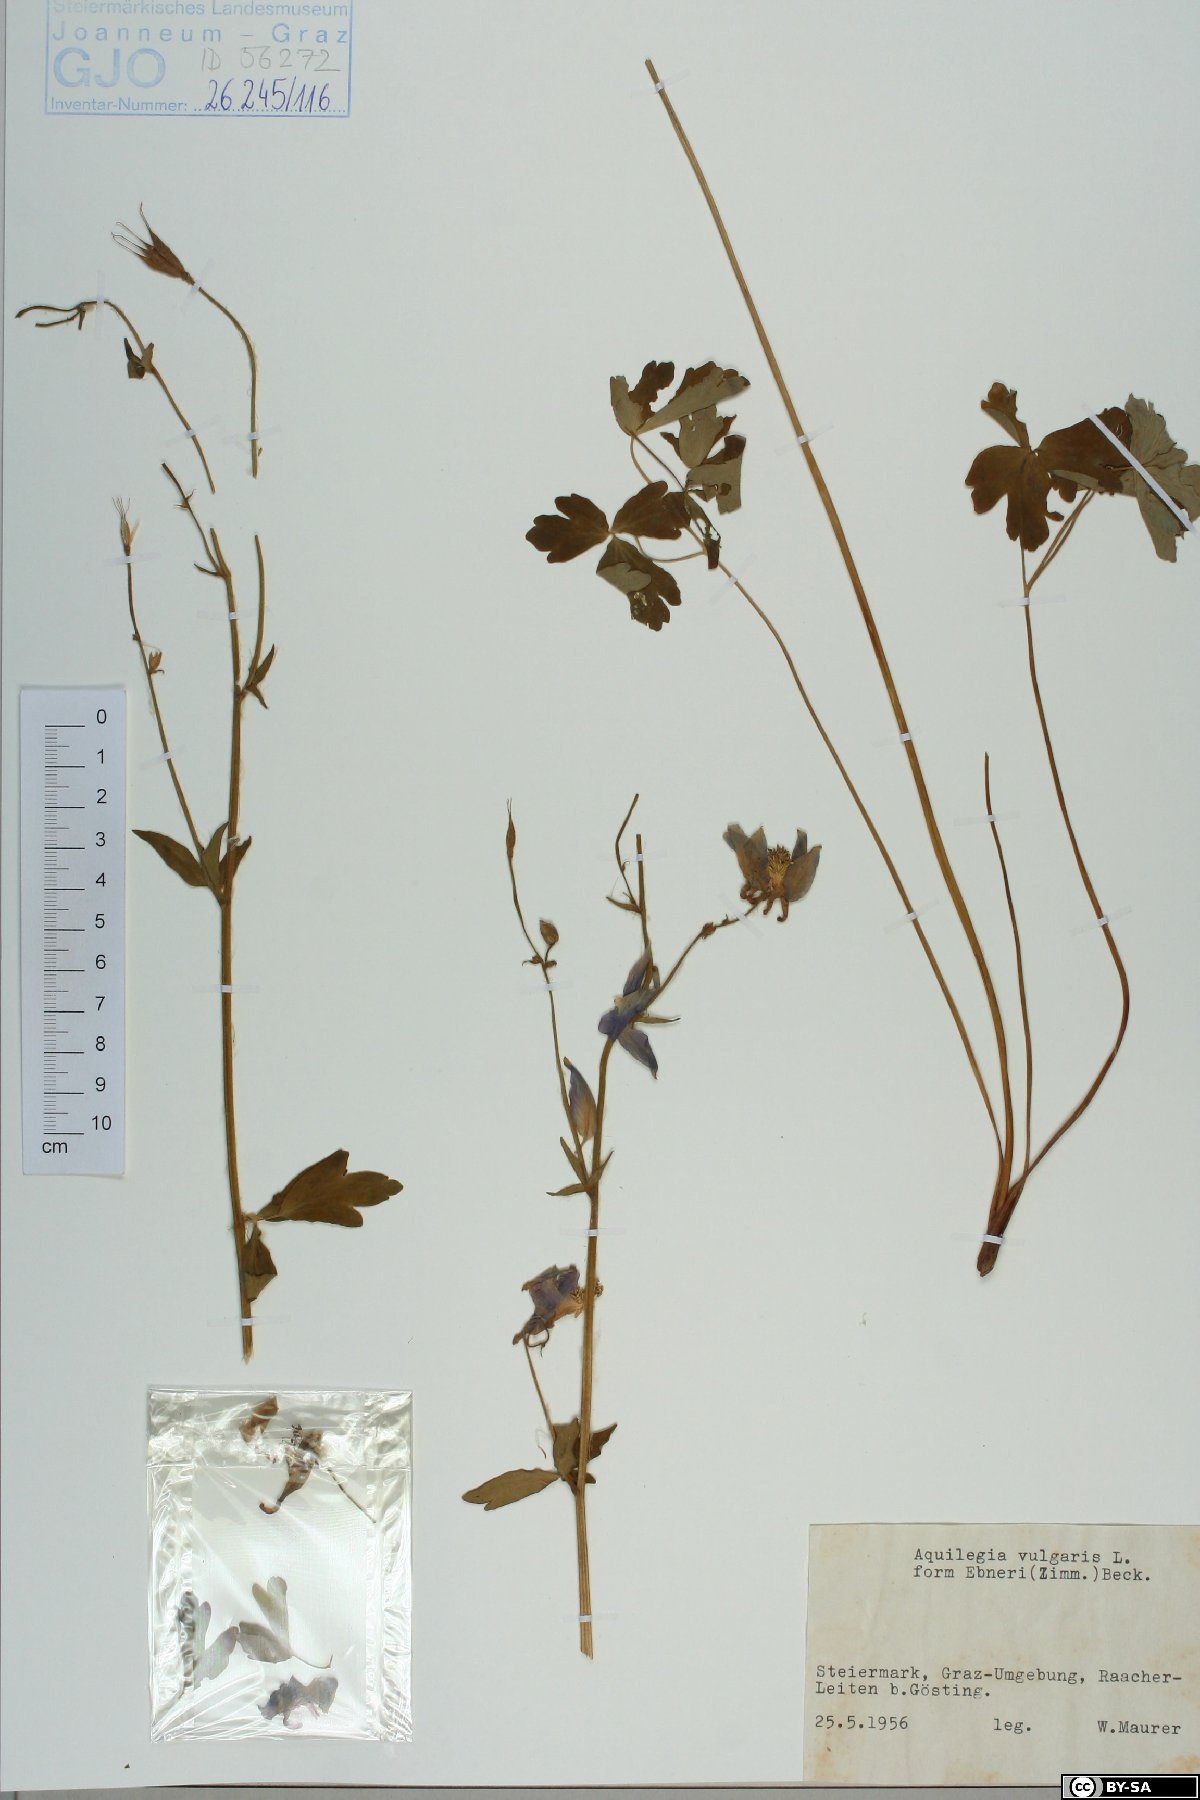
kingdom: Plantae
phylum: Tracheophyta
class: Magnoliopsida
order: Ranunculales
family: Ranunculaceae
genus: Aquilegia
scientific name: Aquilegia vulgaris
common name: Columbine
